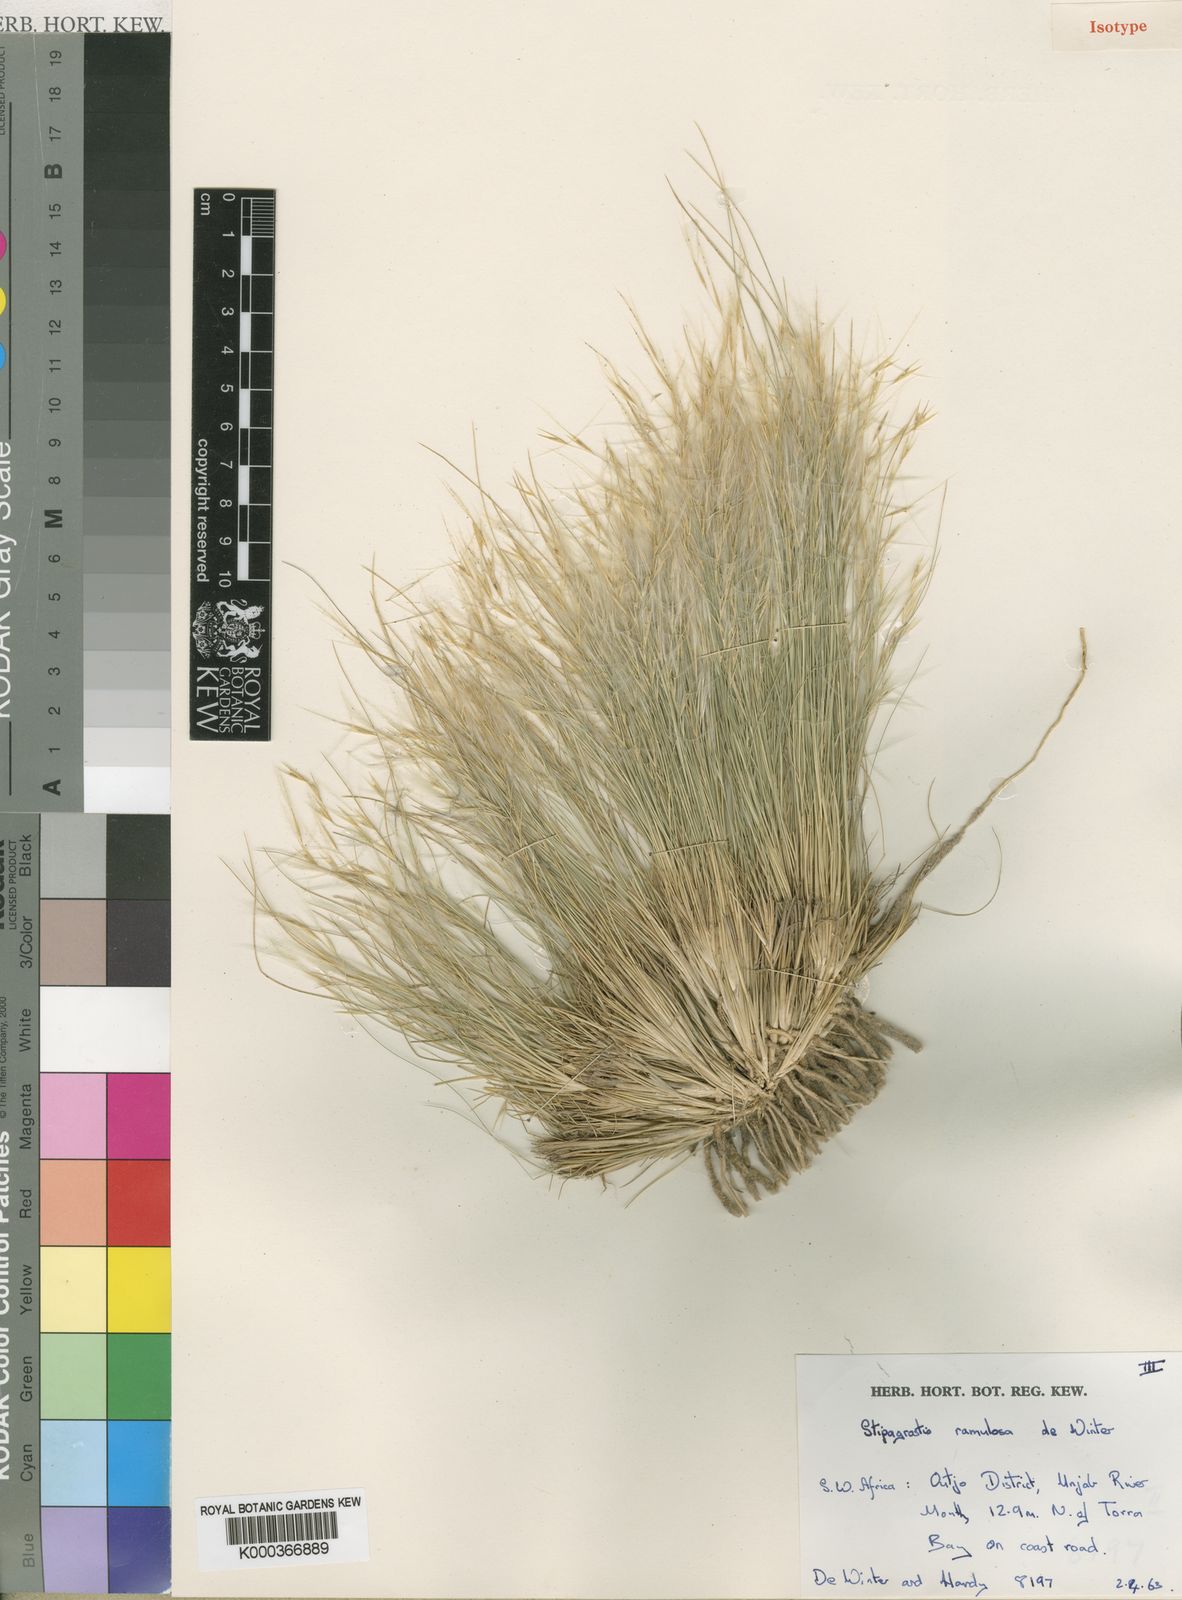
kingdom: Plantae
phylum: Tracheophyta
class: Liliopsida
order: Poales
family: Poaceae
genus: Stipagrostis
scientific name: Stipagrostis ramulosa
